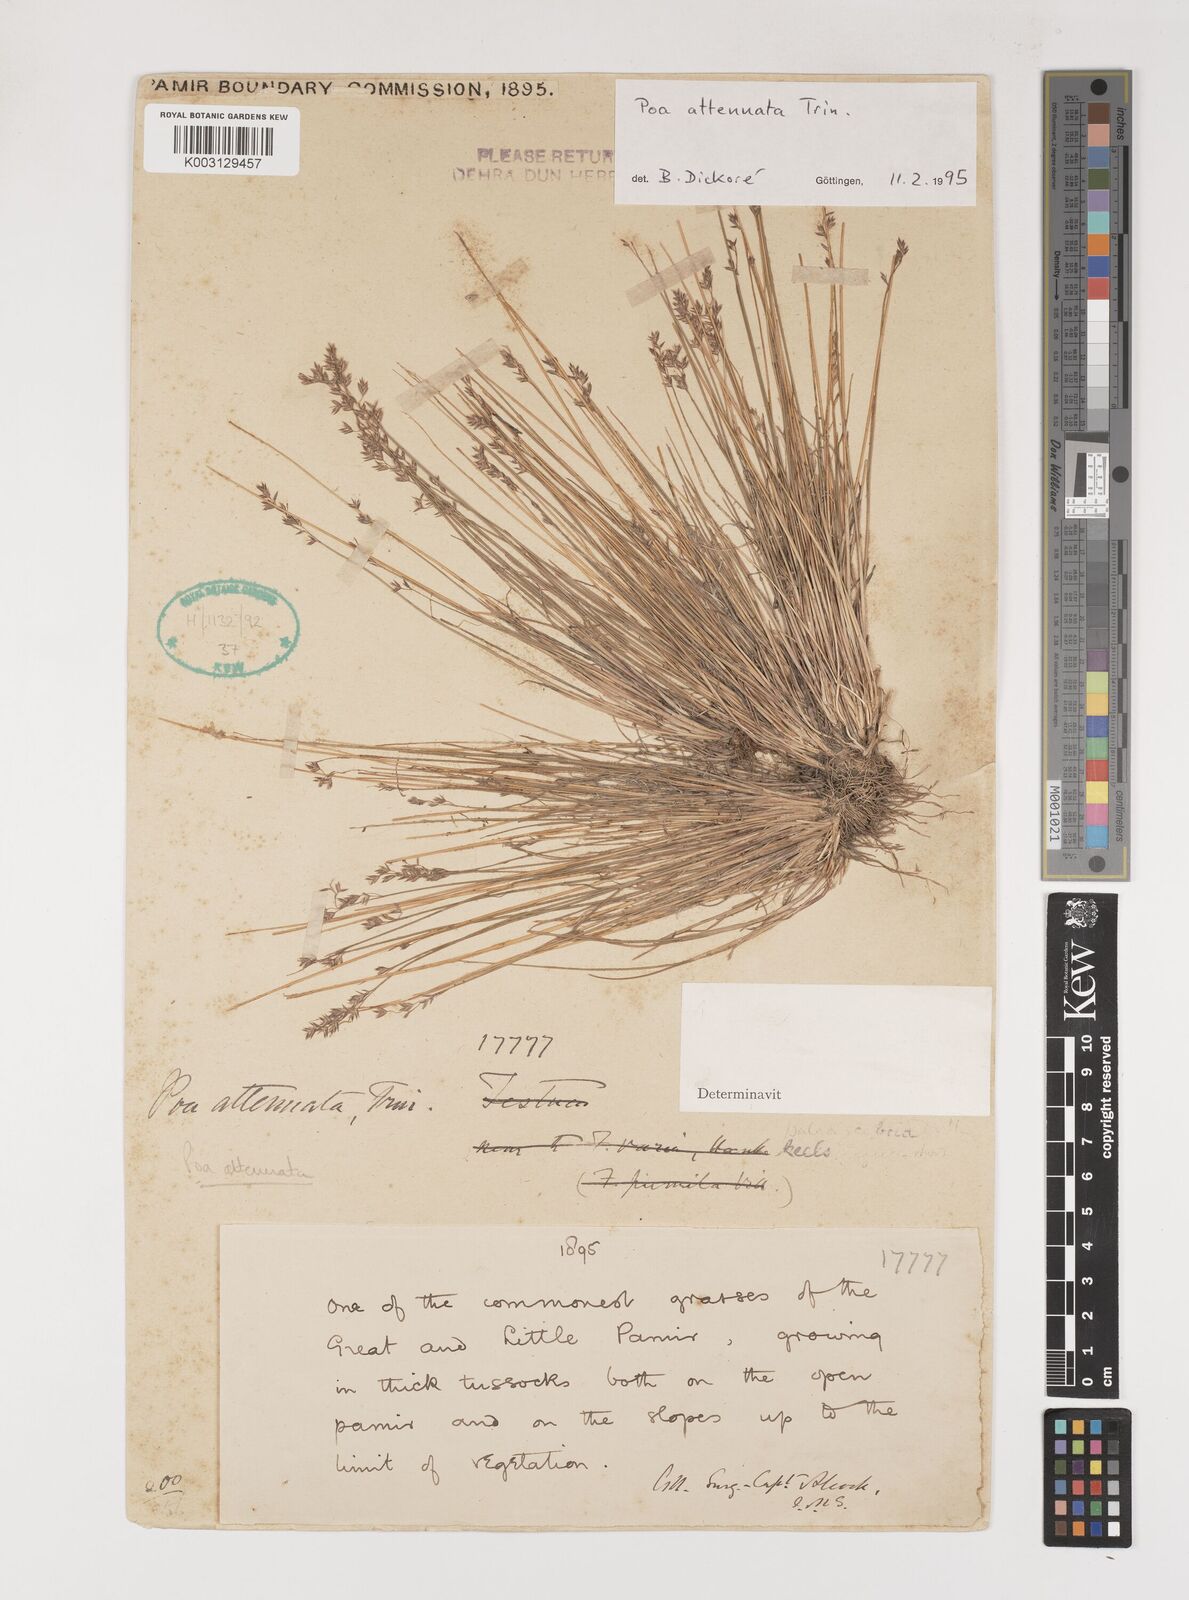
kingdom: Plantae
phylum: Tracheophyta
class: Liliopsida
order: Poales
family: Poaceae
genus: Poa
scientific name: Poa attenuata
